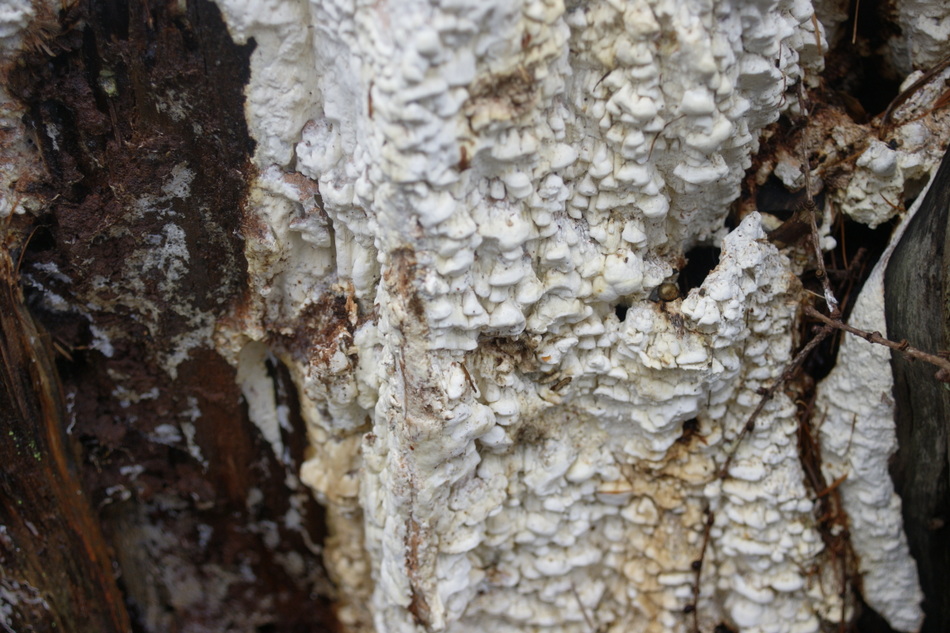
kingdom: Fungi
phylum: Basidiomycota
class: Agaricomycetes
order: Polyporales
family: Fomitopsidaceae
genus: Daedalea
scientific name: Daedalea xantha
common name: gul sejporesvamp
